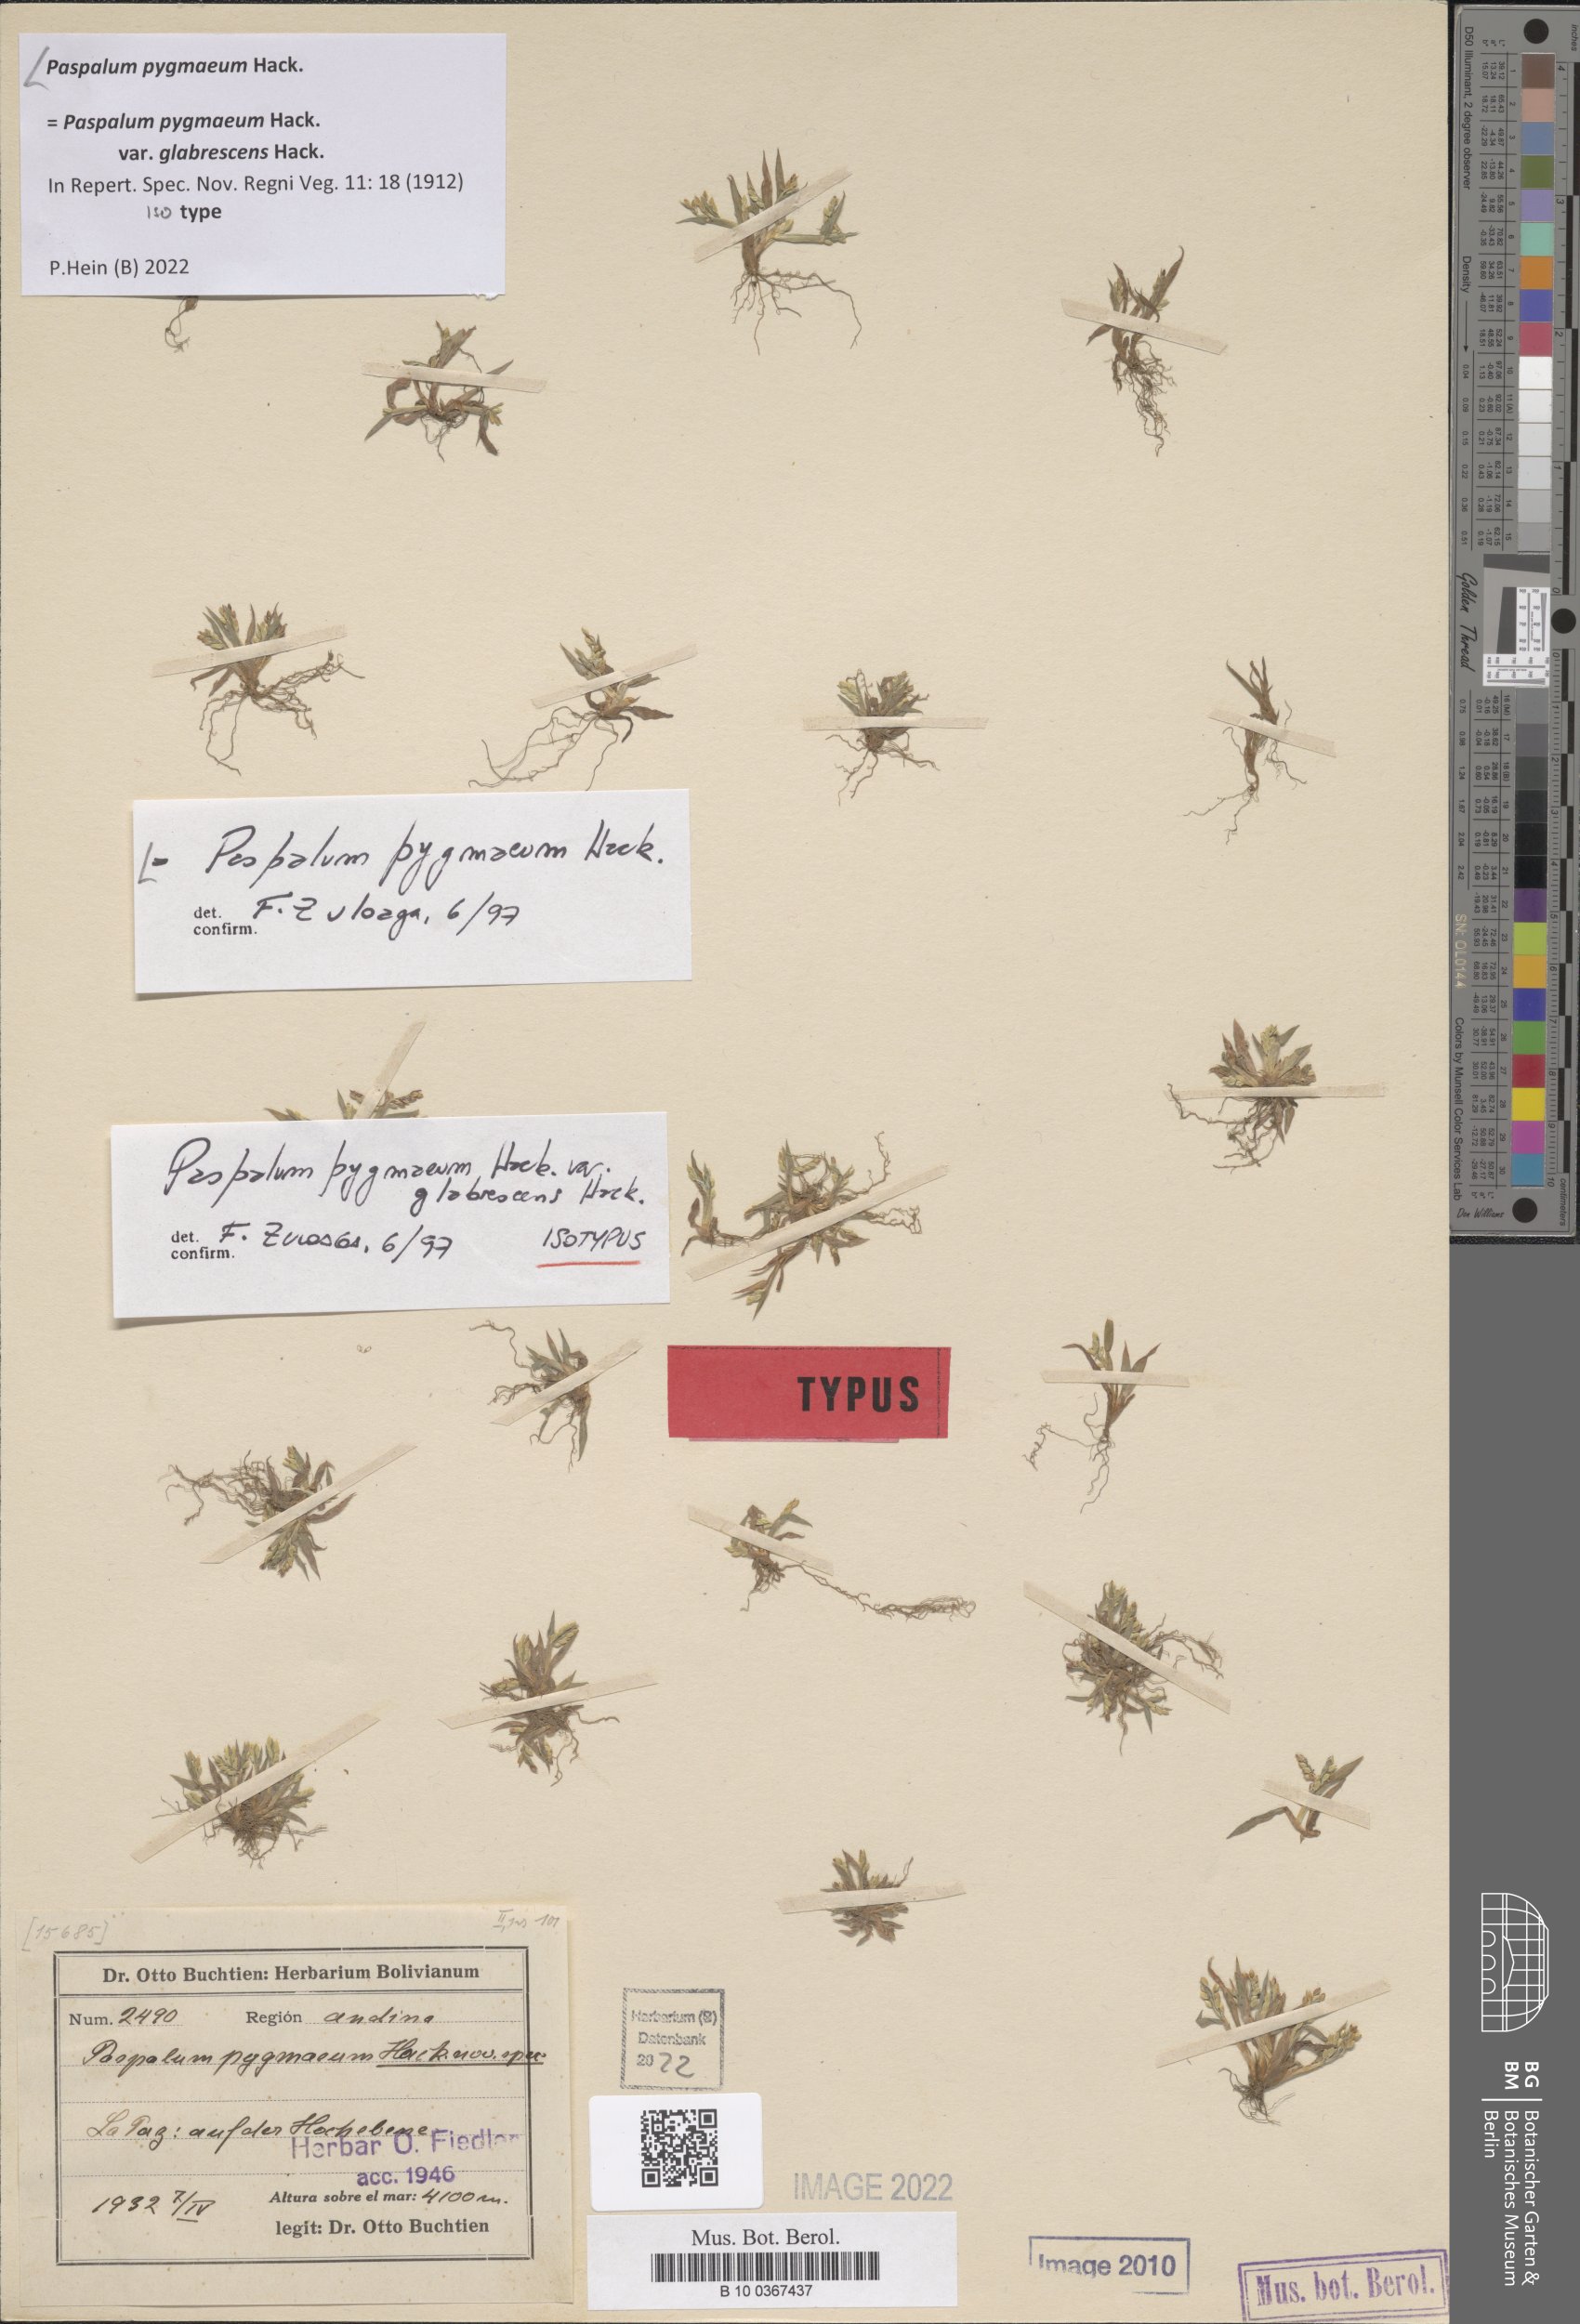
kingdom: Plantae
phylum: Tracheophyta
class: Liliopsida
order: Poales
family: Poaceae
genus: Paspalum
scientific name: Paspalum pygmaeum
